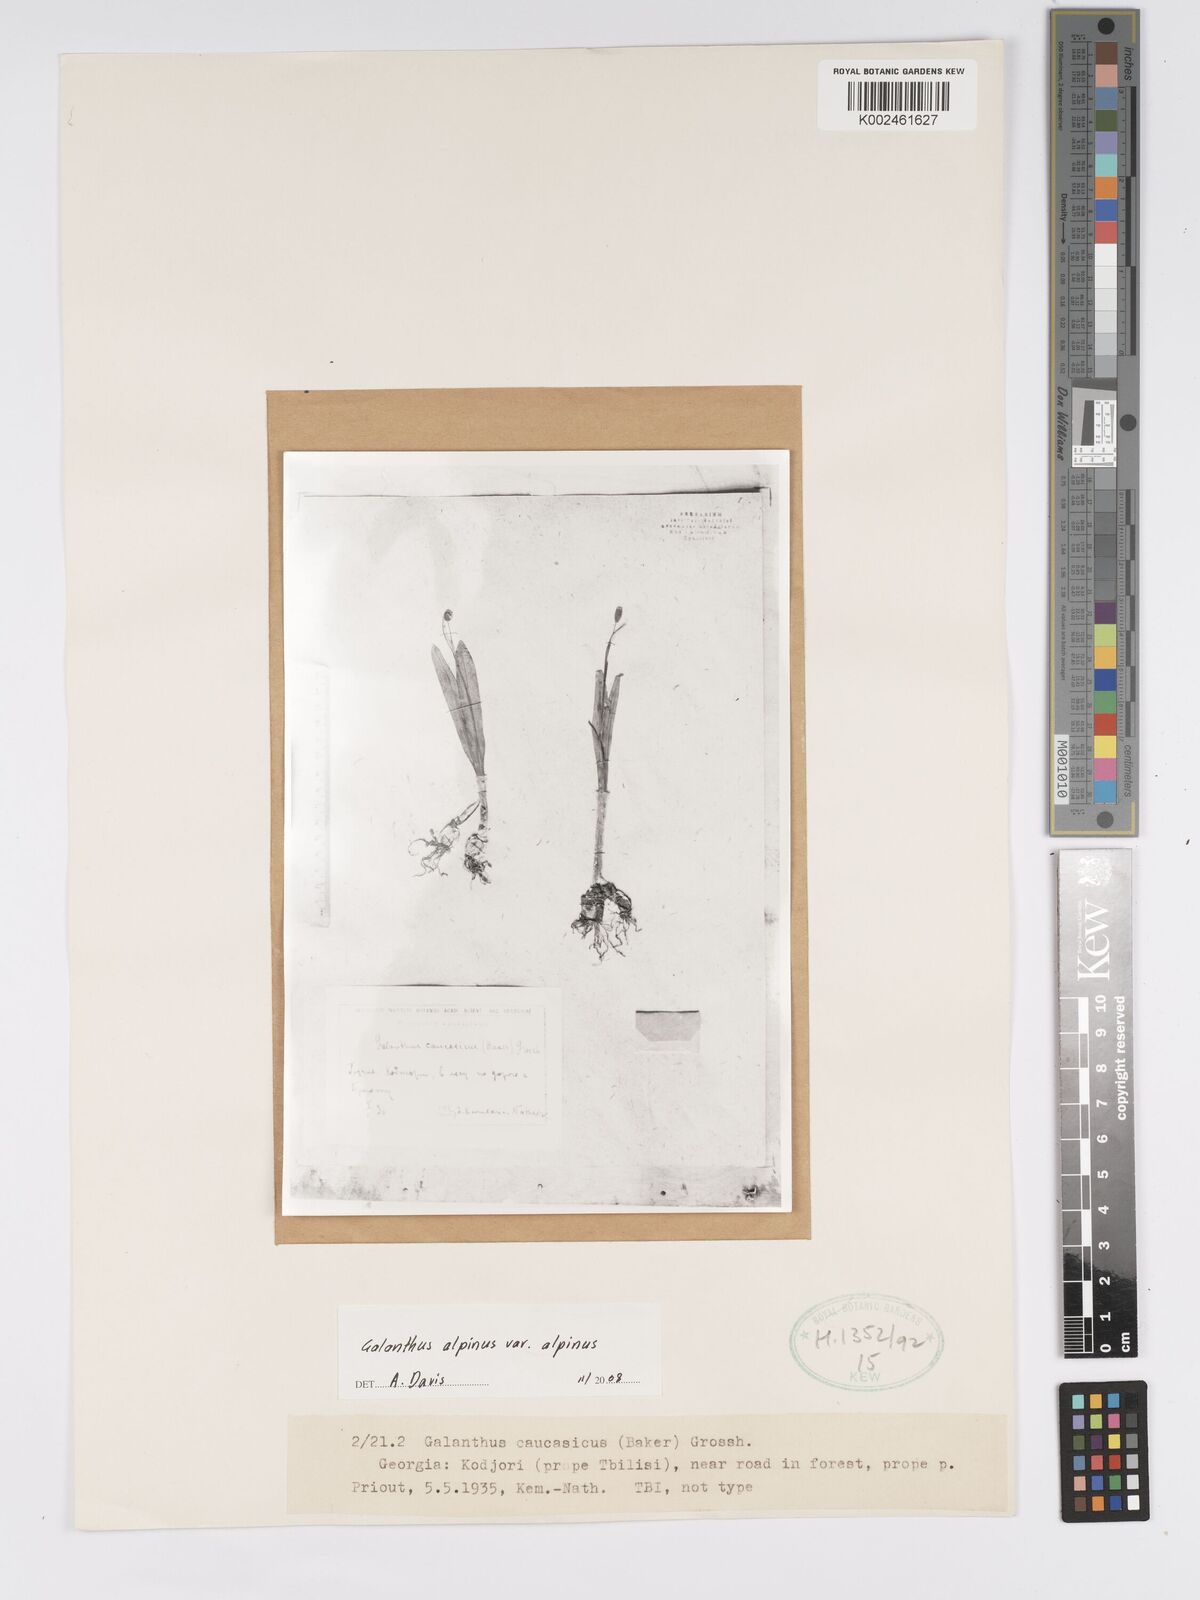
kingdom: Plantae
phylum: Tracheophyta
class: Liliopsida
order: Asparagales
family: Amaryllidaceae
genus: Galanthus
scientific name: Galanthus alpinus
